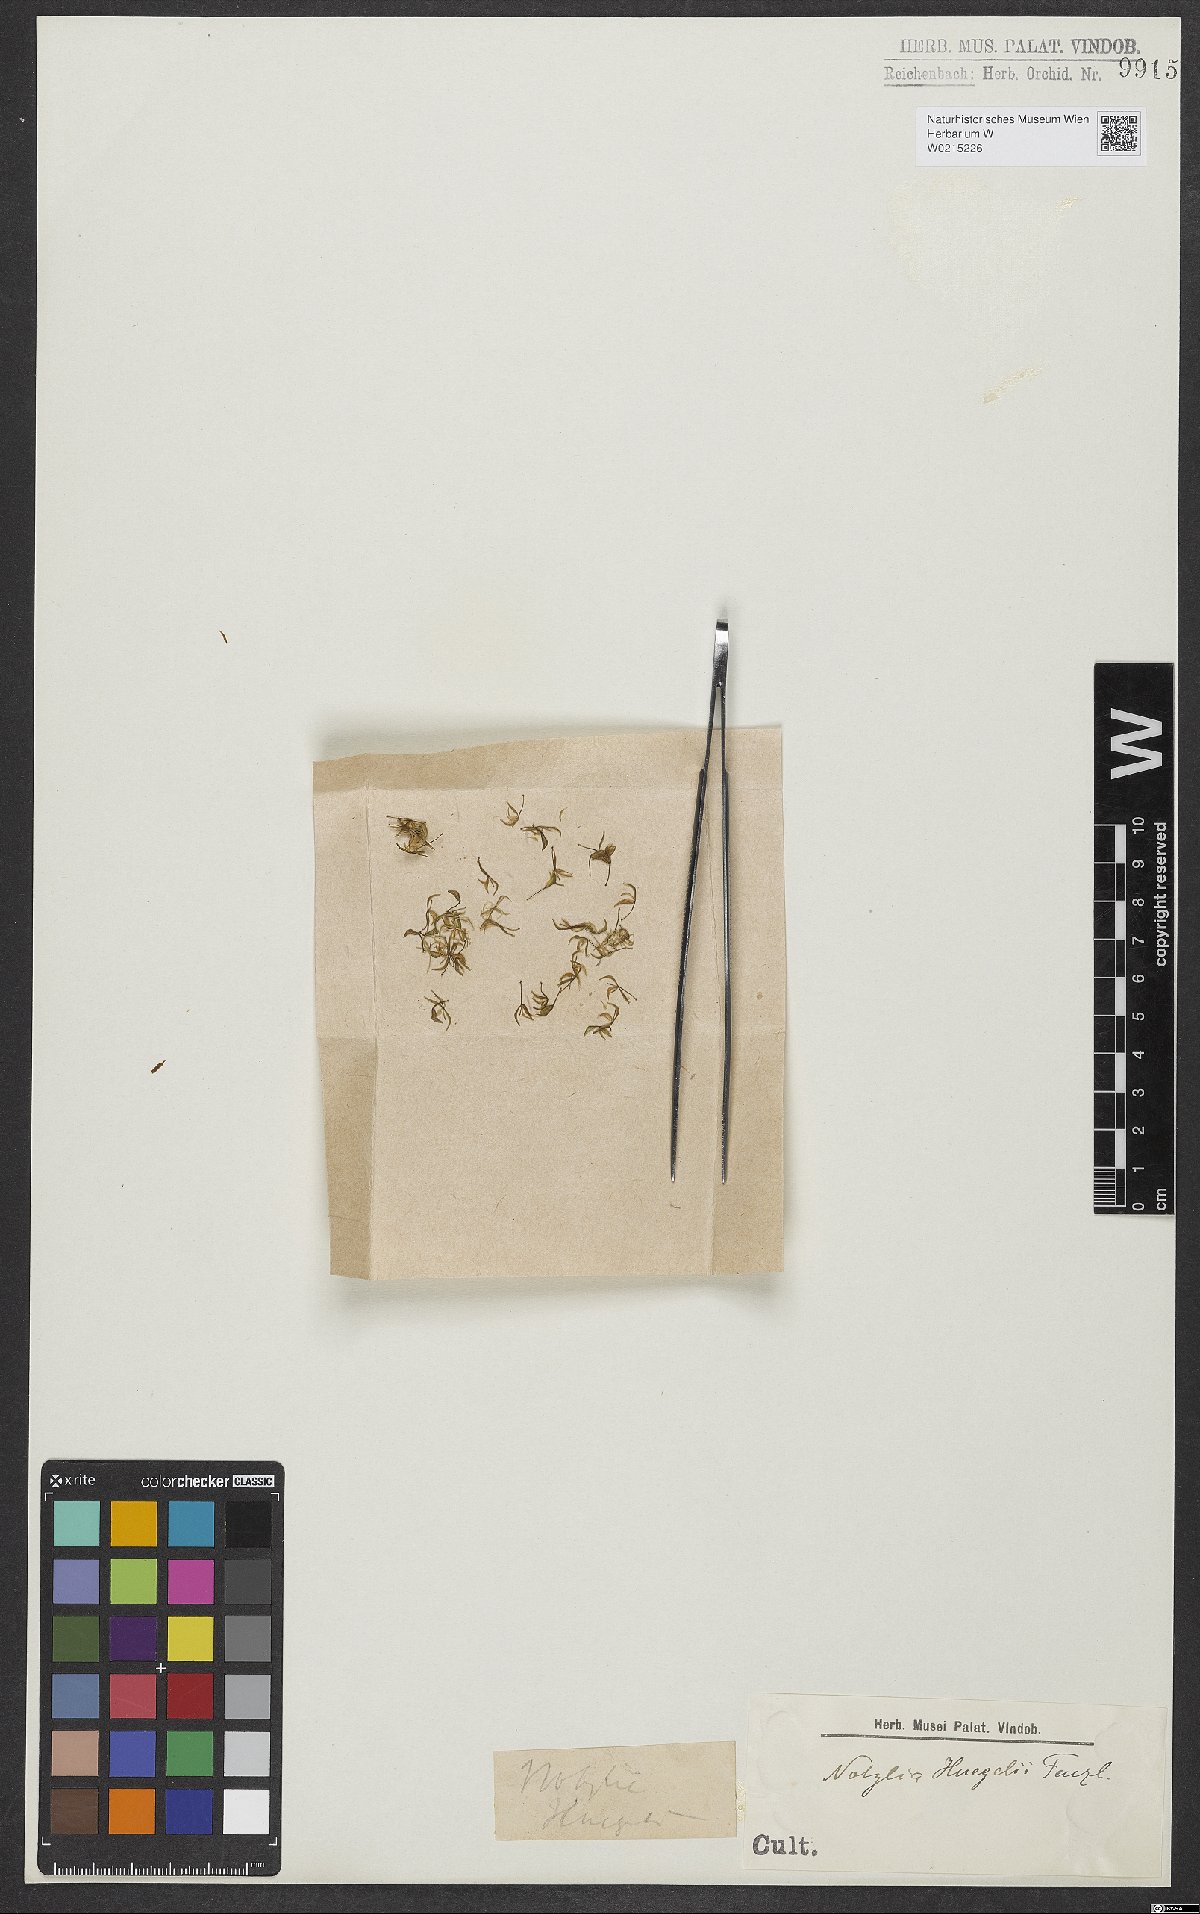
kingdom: Plantae
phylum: Tracheophyta
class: Liliopsida
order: Asparagales
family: Orchidaceae
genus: Notylia
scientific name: Notylia orbicularis
